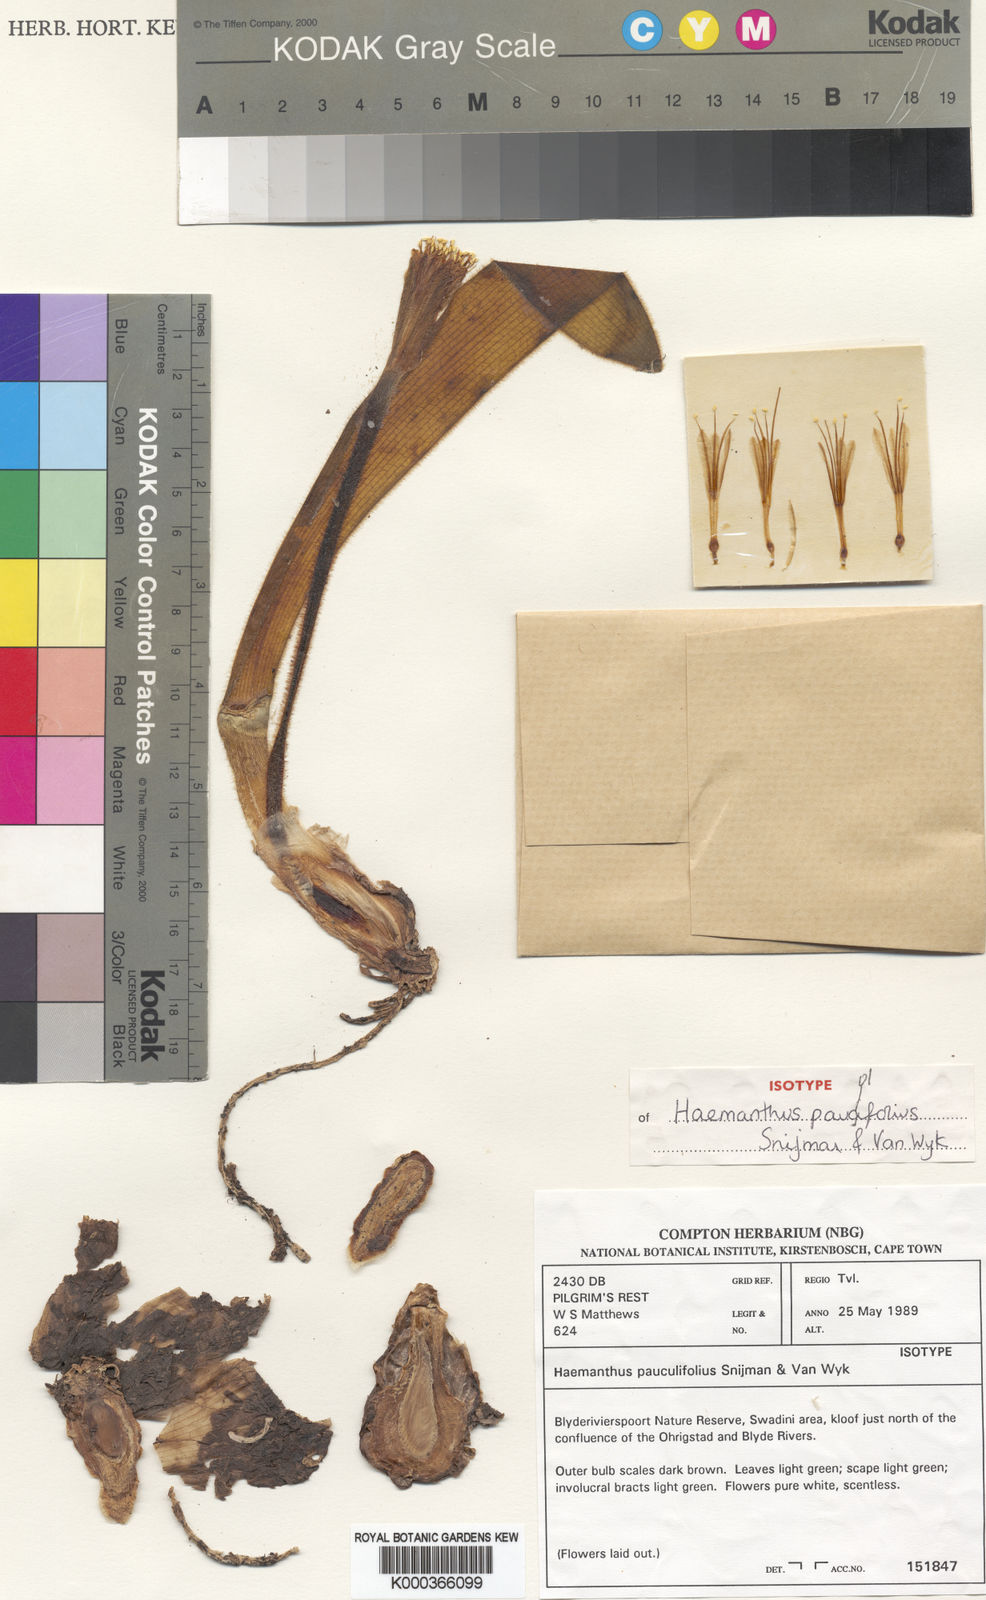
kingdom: Plantae
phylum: Tracheophyta
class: Liliopsida
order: Asparagales
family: Amaryllidaceae
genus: Haemanthus
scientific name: Haemanthus pauculifolius
